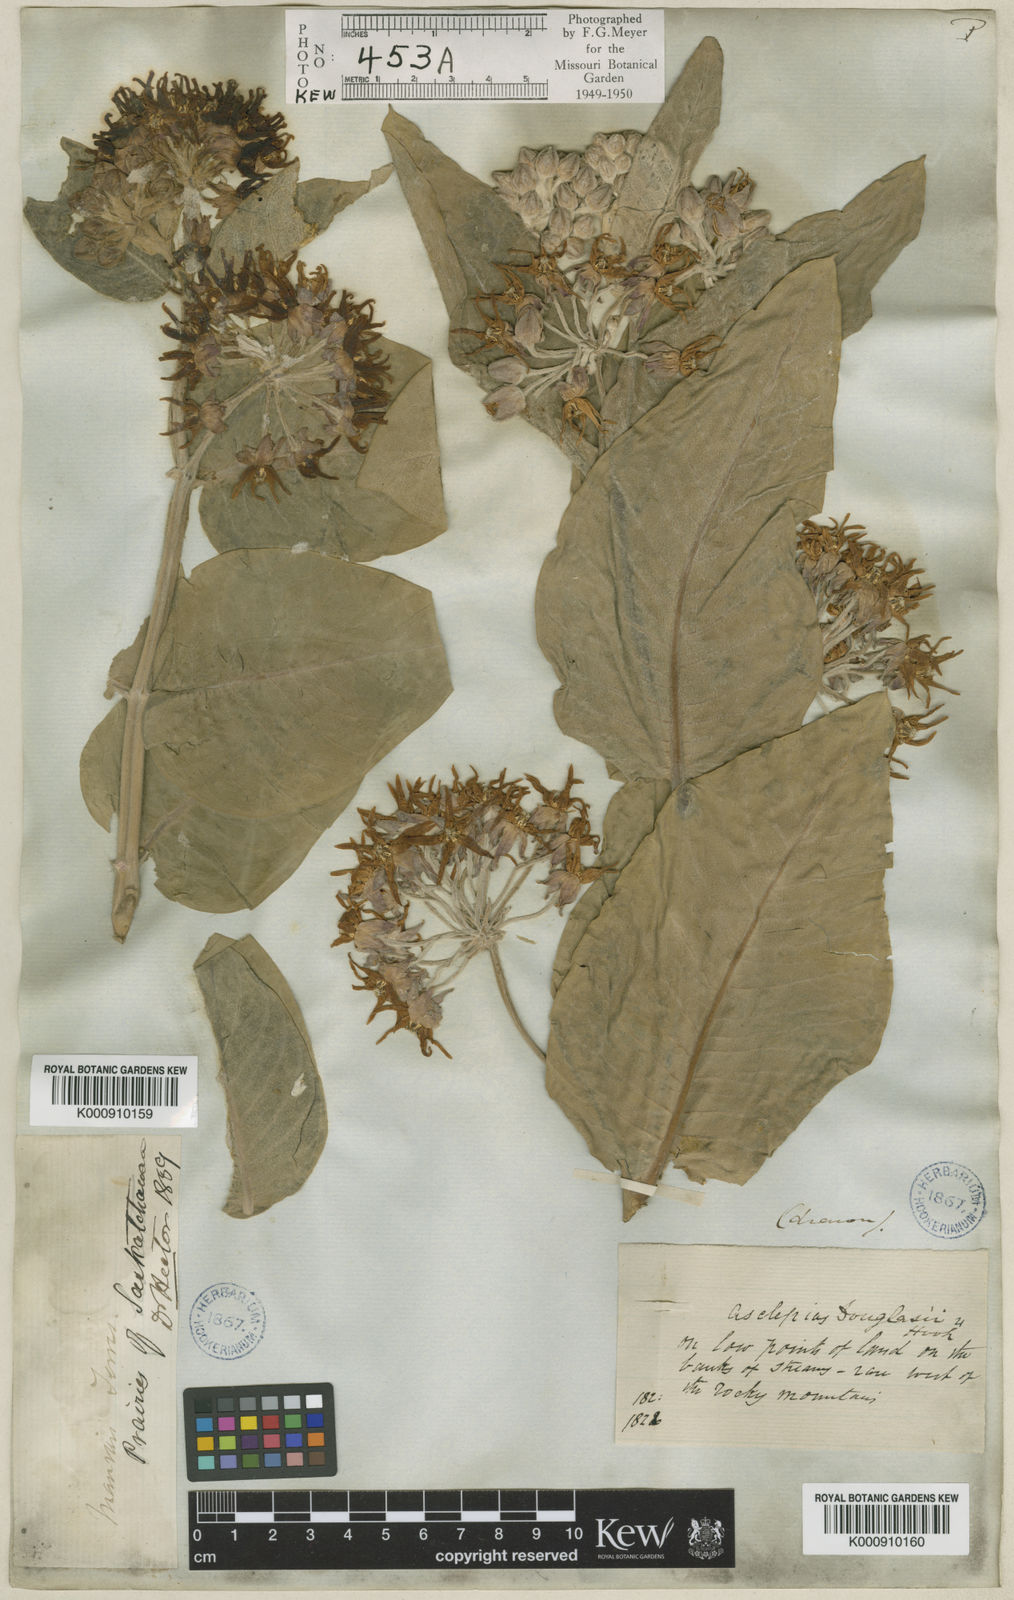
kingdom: Plantae
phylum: Tracheophyta
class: Magnoliopsida
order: Gentianales
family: Apocynaceae
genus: Asclepias
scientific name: Asclepias speciosa
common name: Showy milkweed
